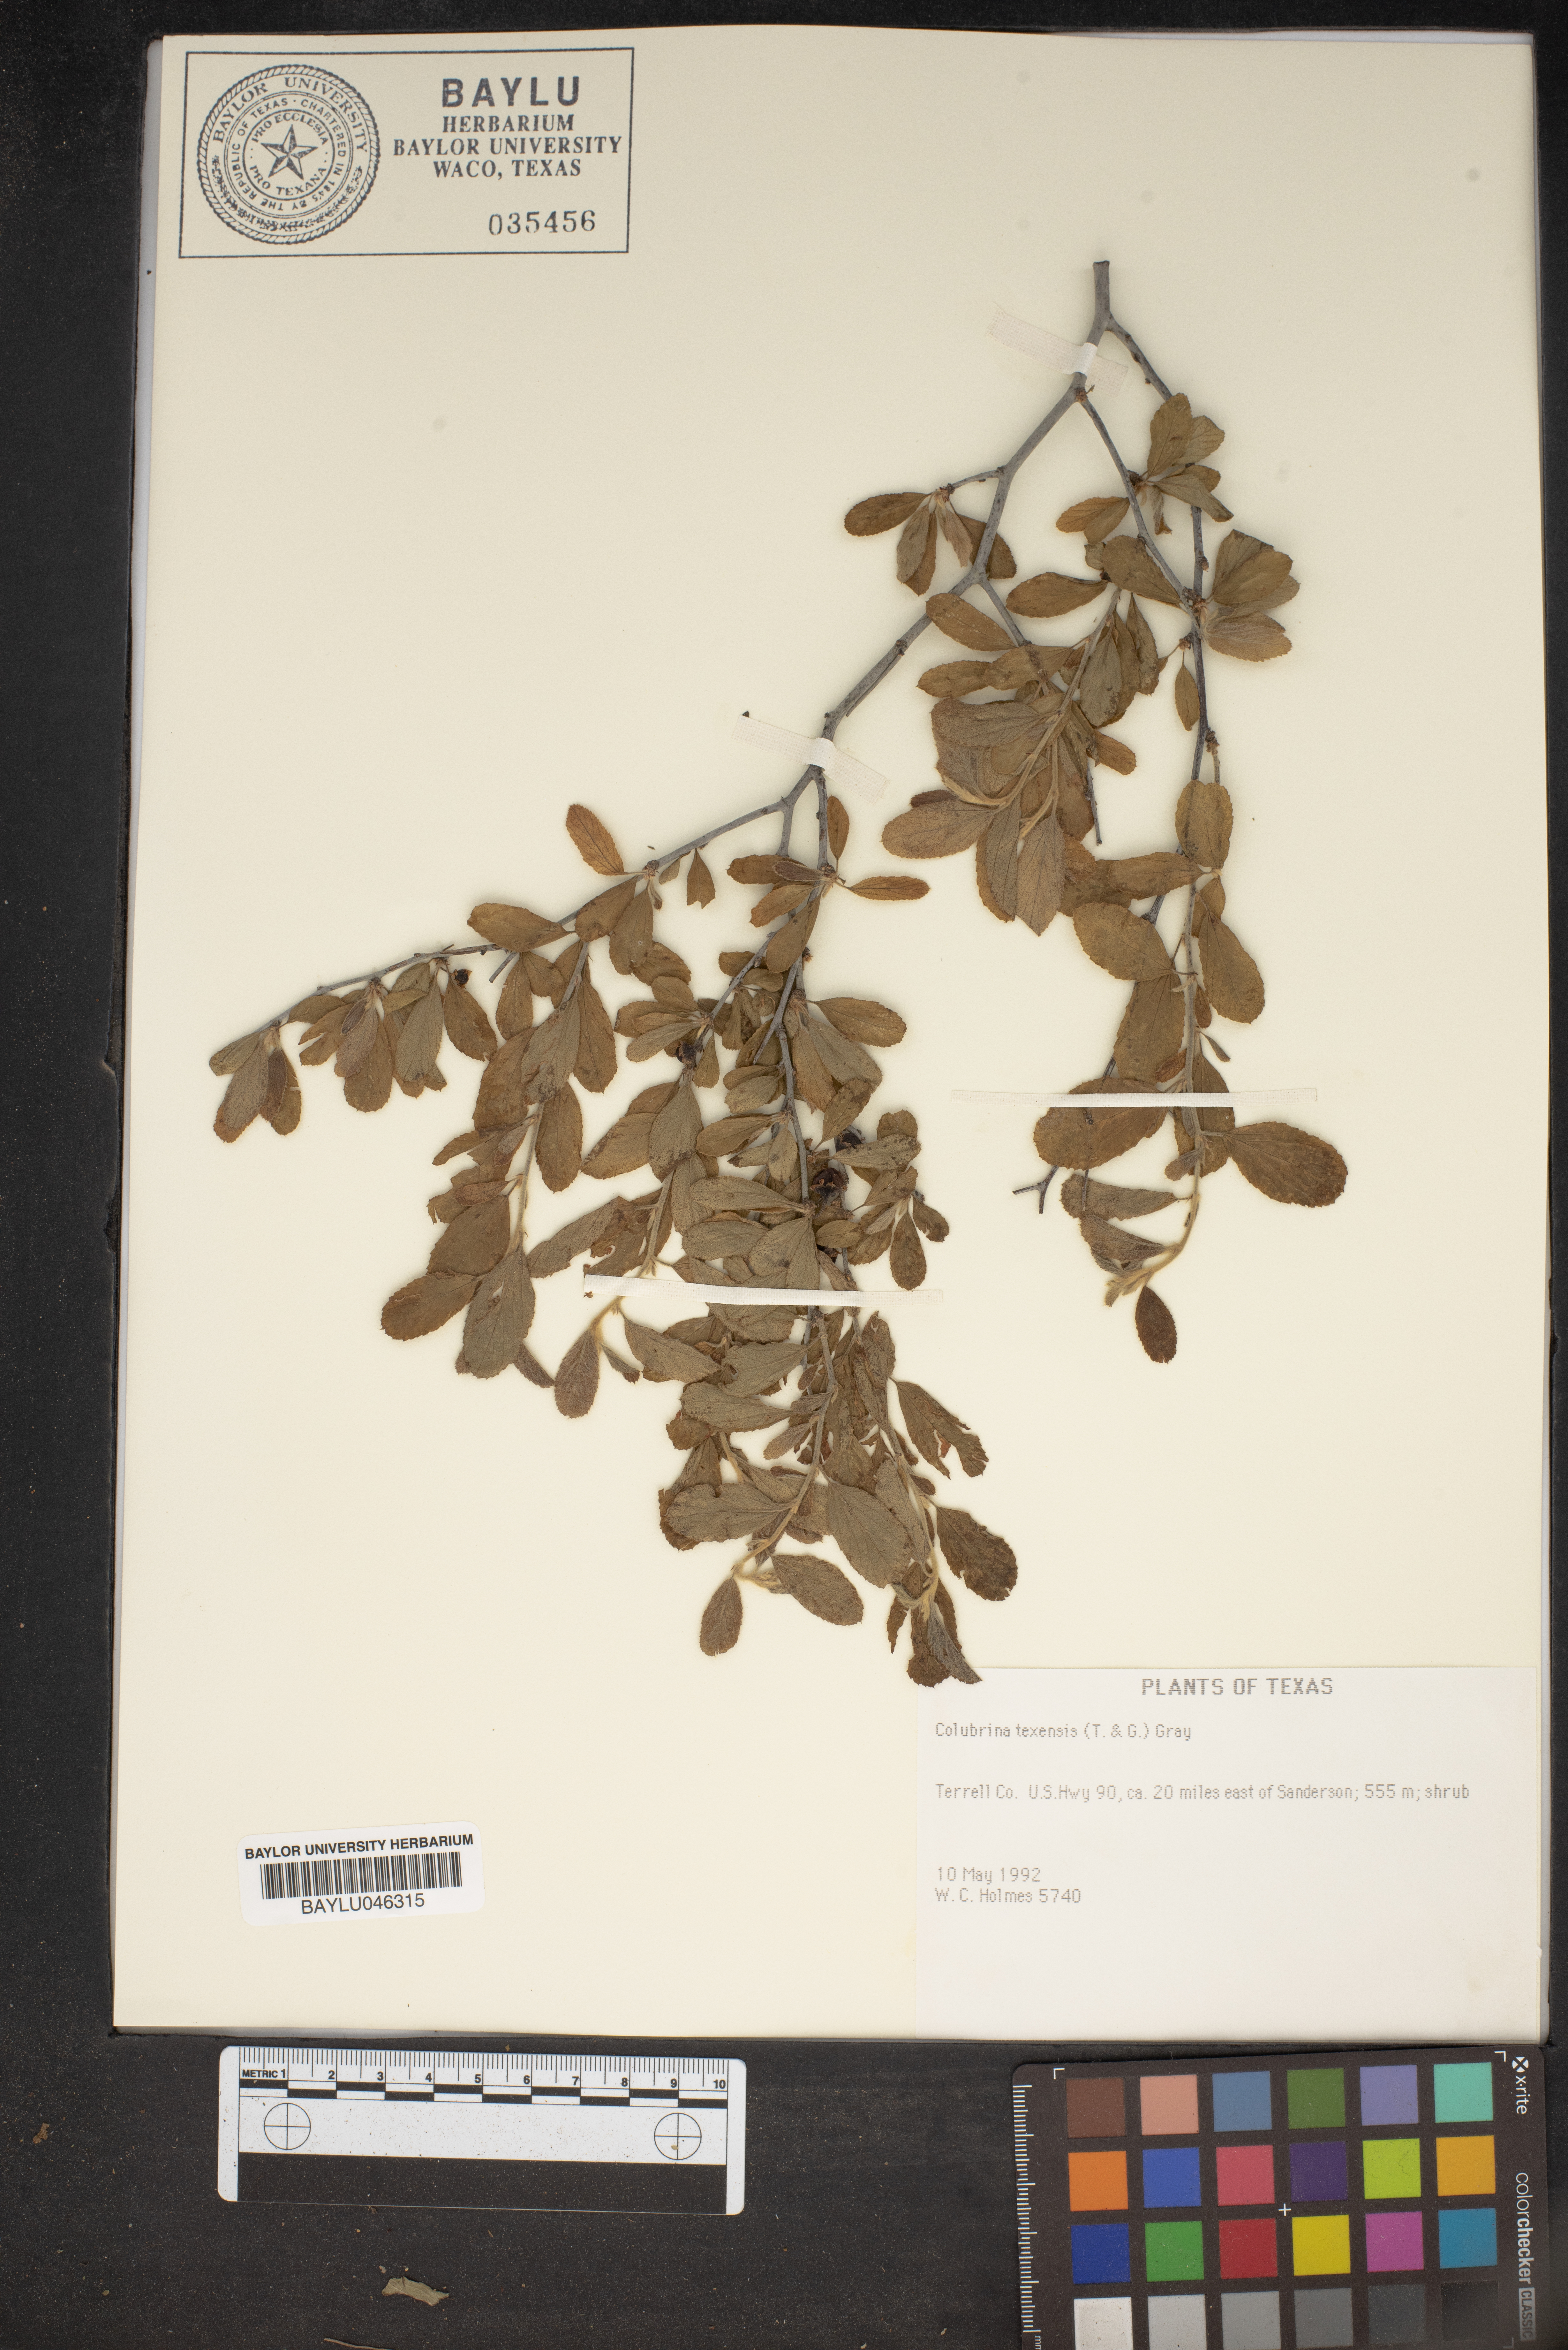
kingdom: Plantae
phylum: Tracheophyta
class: Magnoliopsida
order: Rosales
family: Rhamnaceae
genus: Colubrina
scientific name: Colubrina texensis
